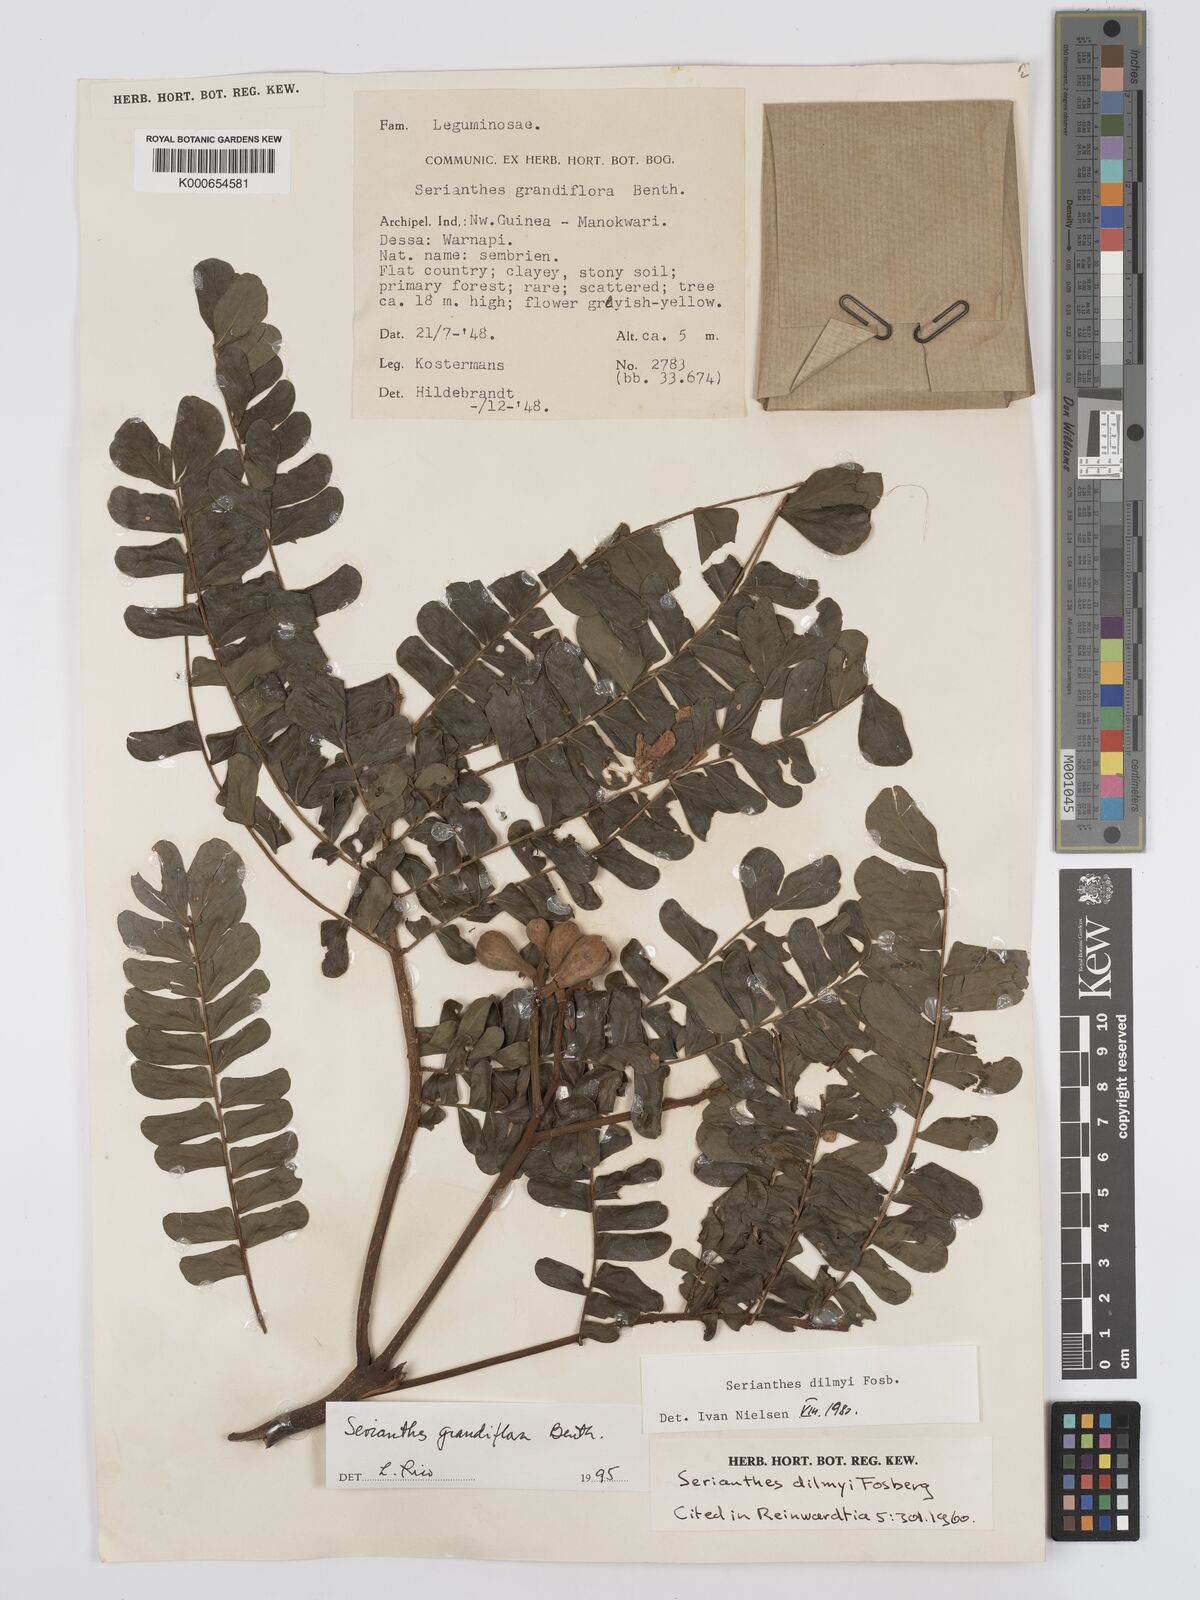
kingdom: Plantae
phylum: Tracheophyta
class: Magnoliopsida
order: Fabales
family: Fabaceae
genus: Serianthes
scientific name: Serianthes grandiflora
